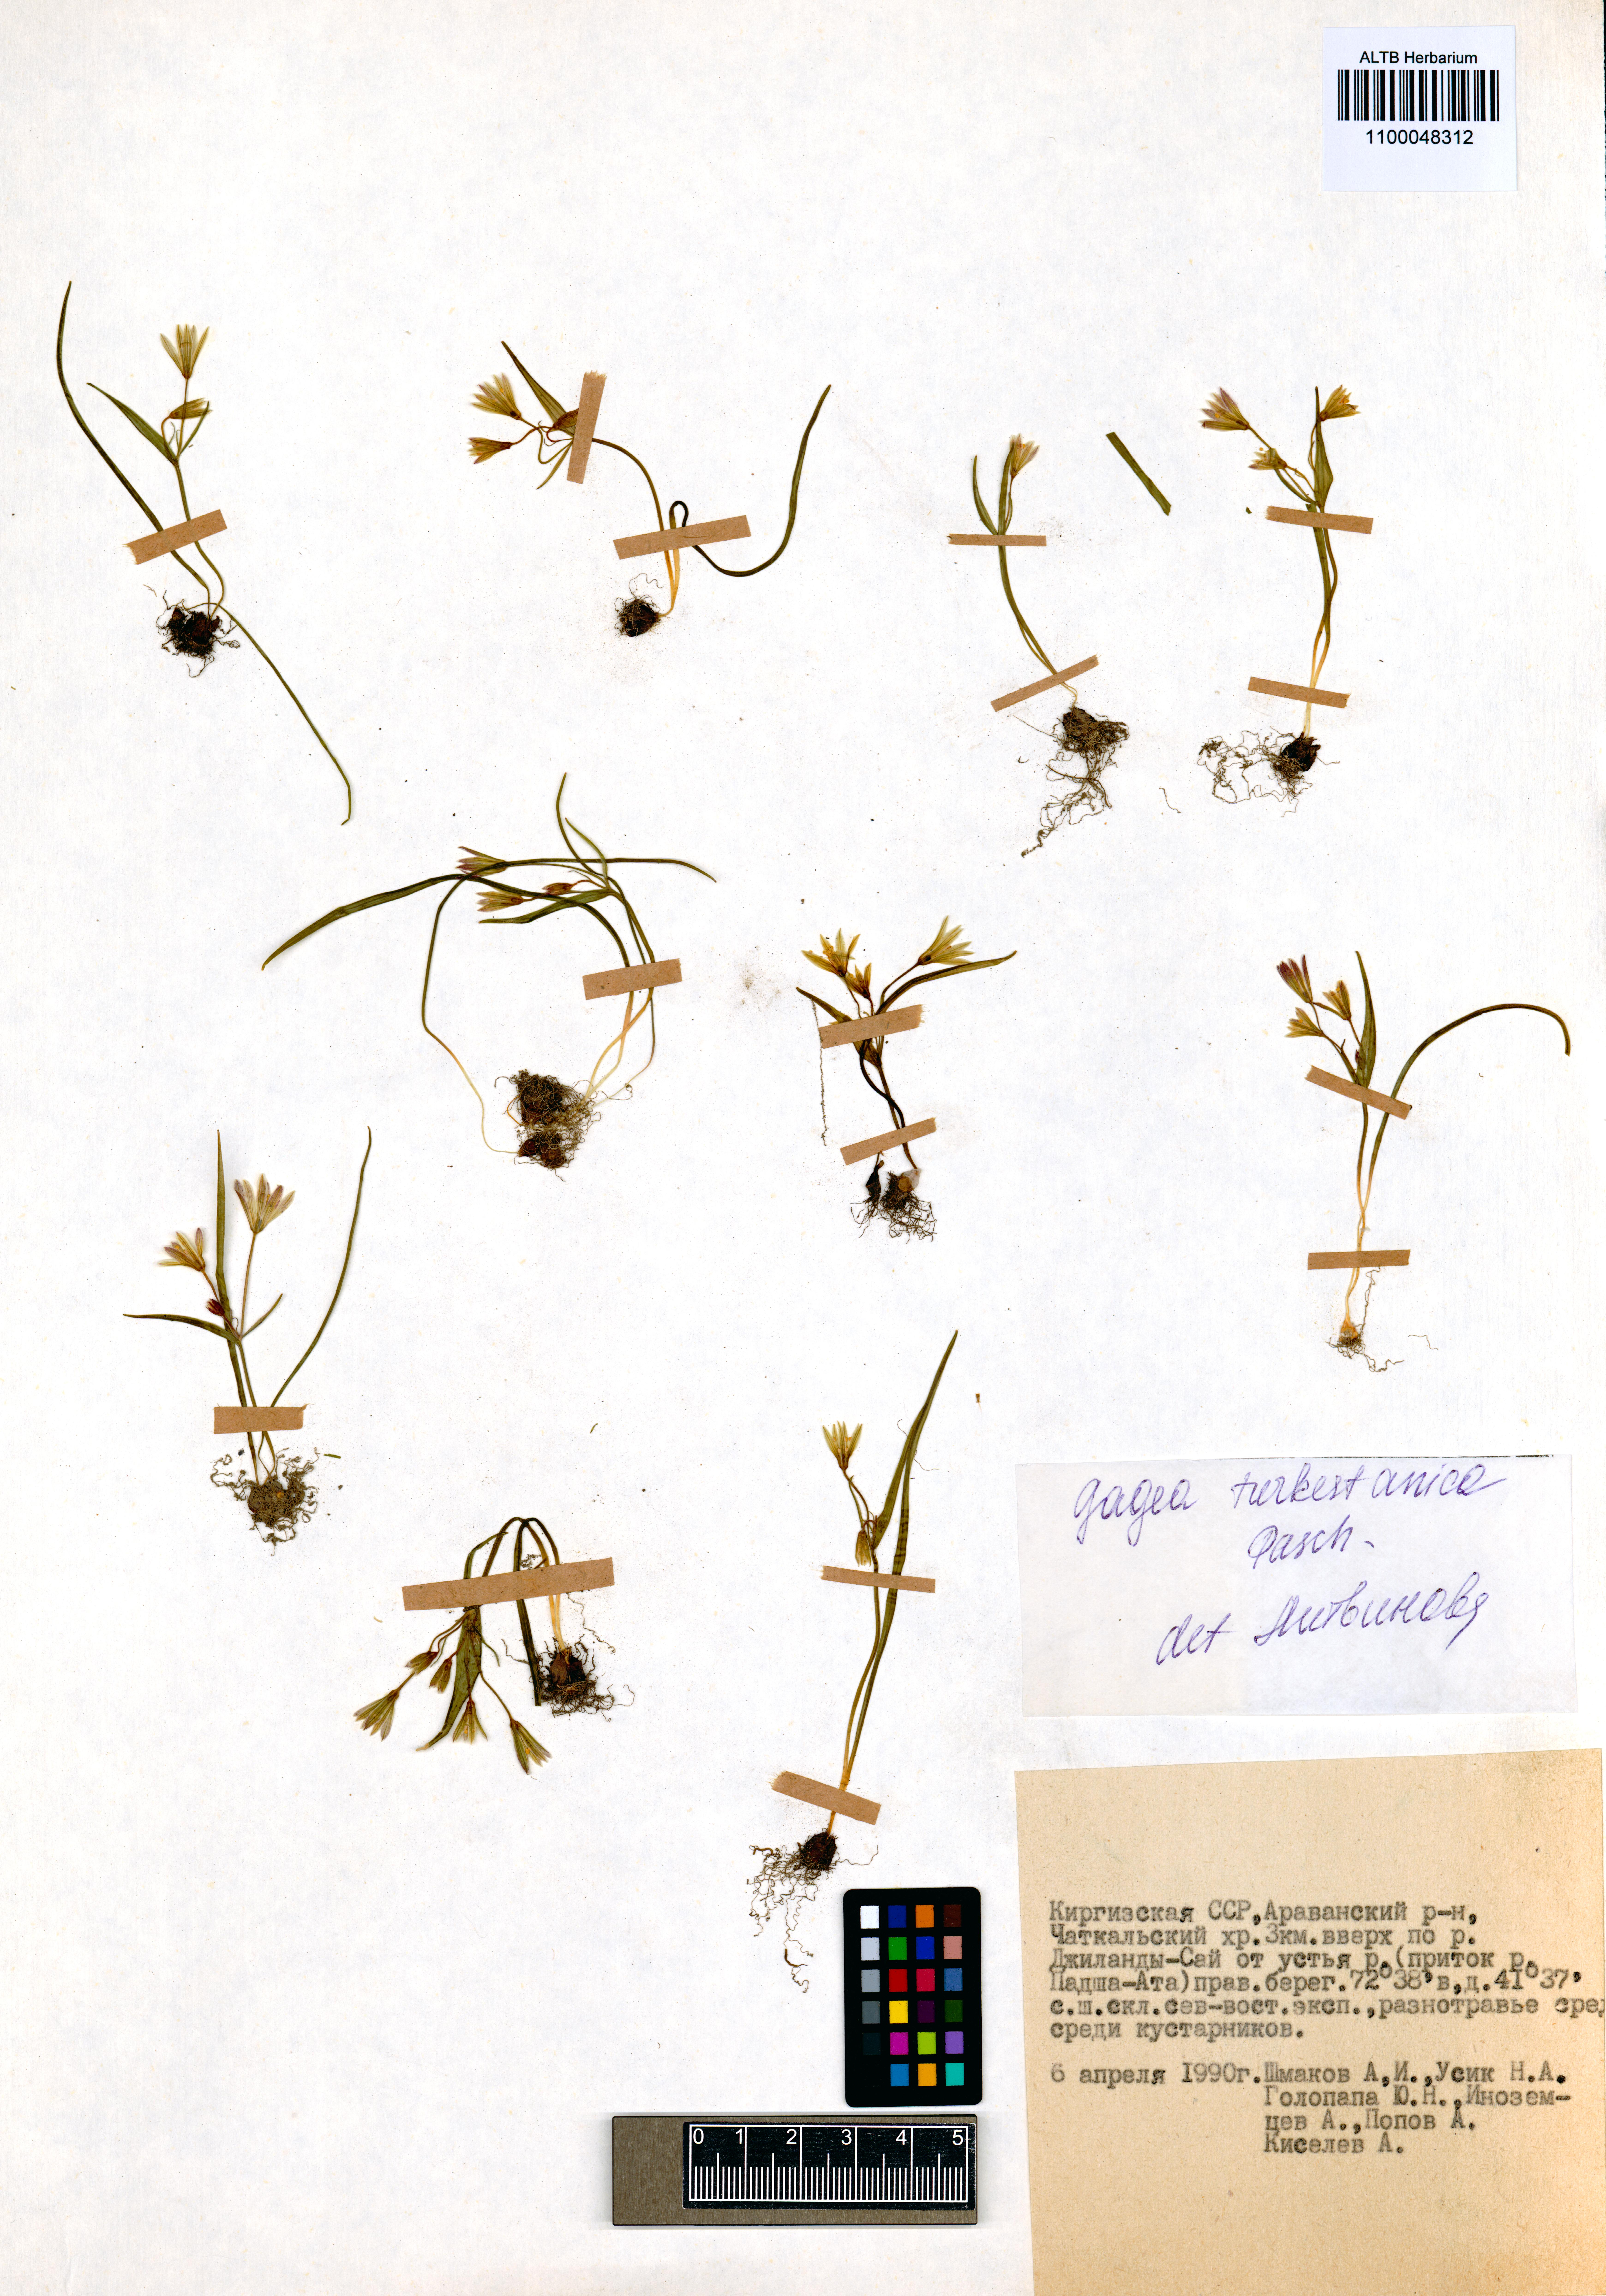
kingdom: Plantae
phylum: Tracheophyta
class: Liliopsida
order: Liliales
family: Liliaceae
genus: Gagea
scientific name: Gagea capusii
